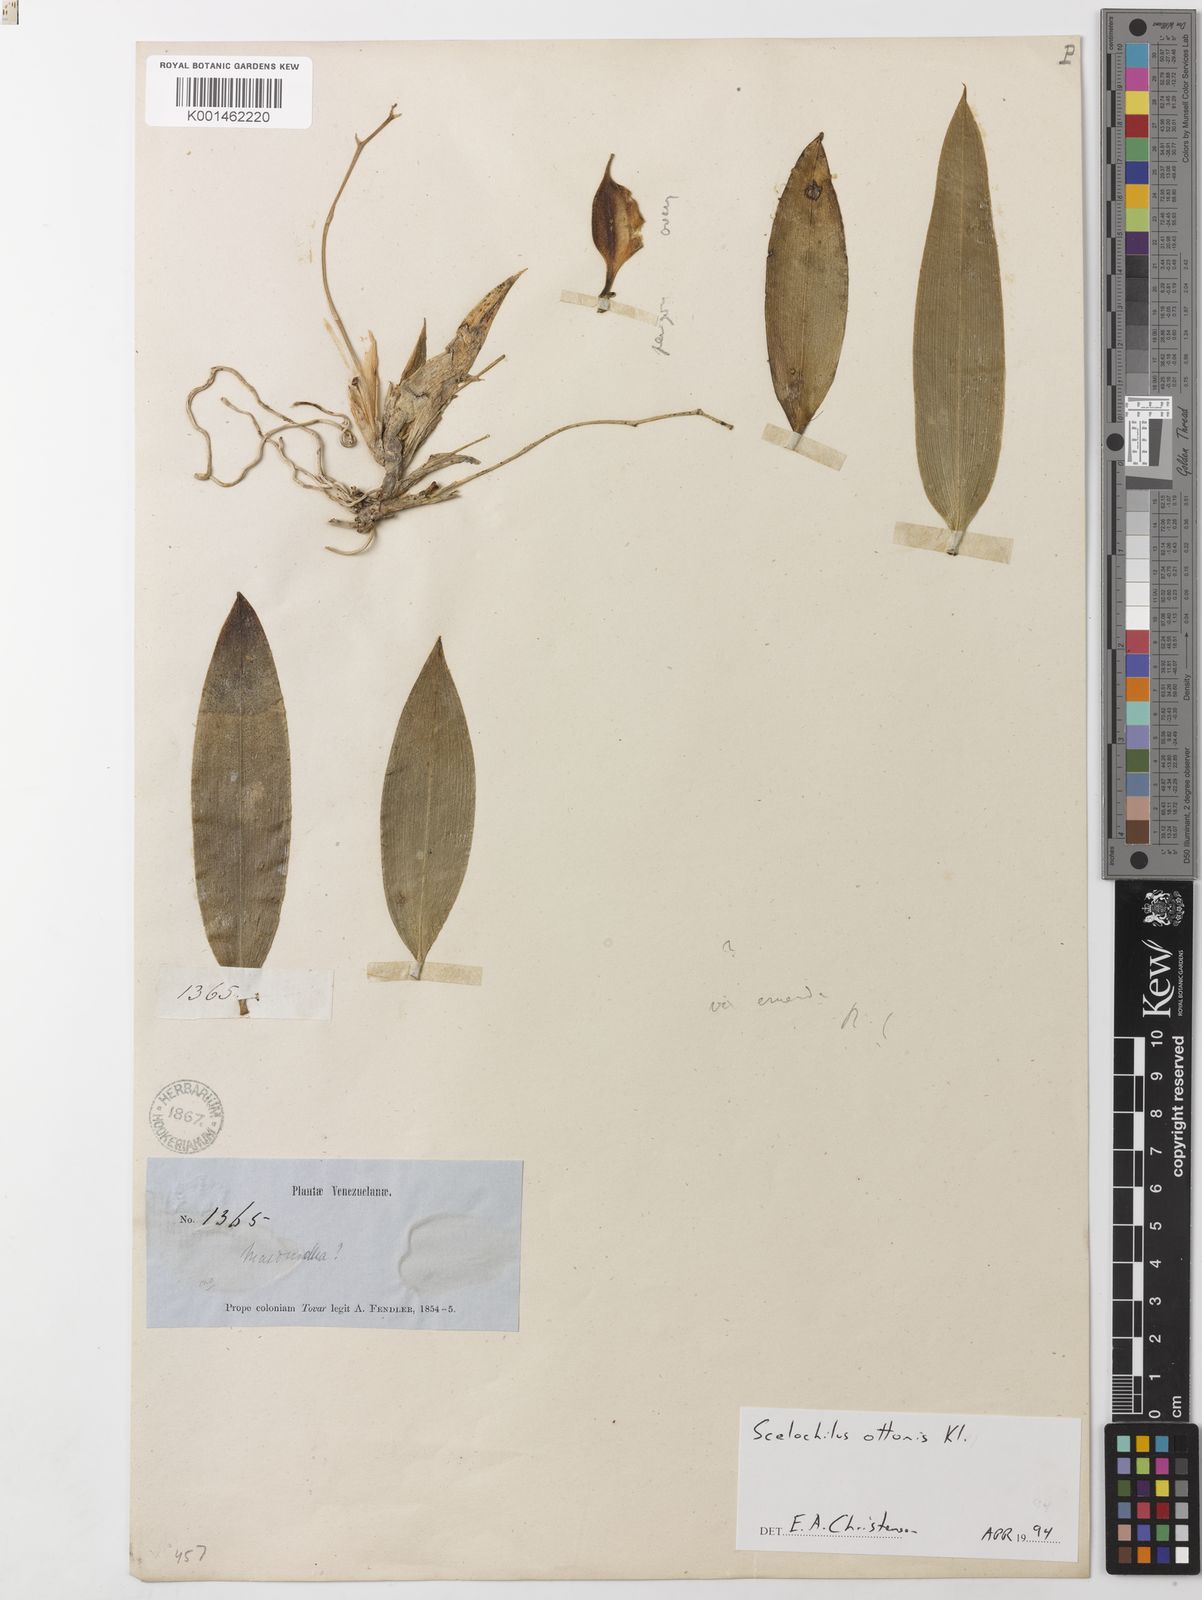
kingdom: Plantae
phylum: Tracheophyta
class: Liliopsida
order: Asparagales
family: Orchidaceae
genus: Comparettia
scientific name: Comparettia ottonis
